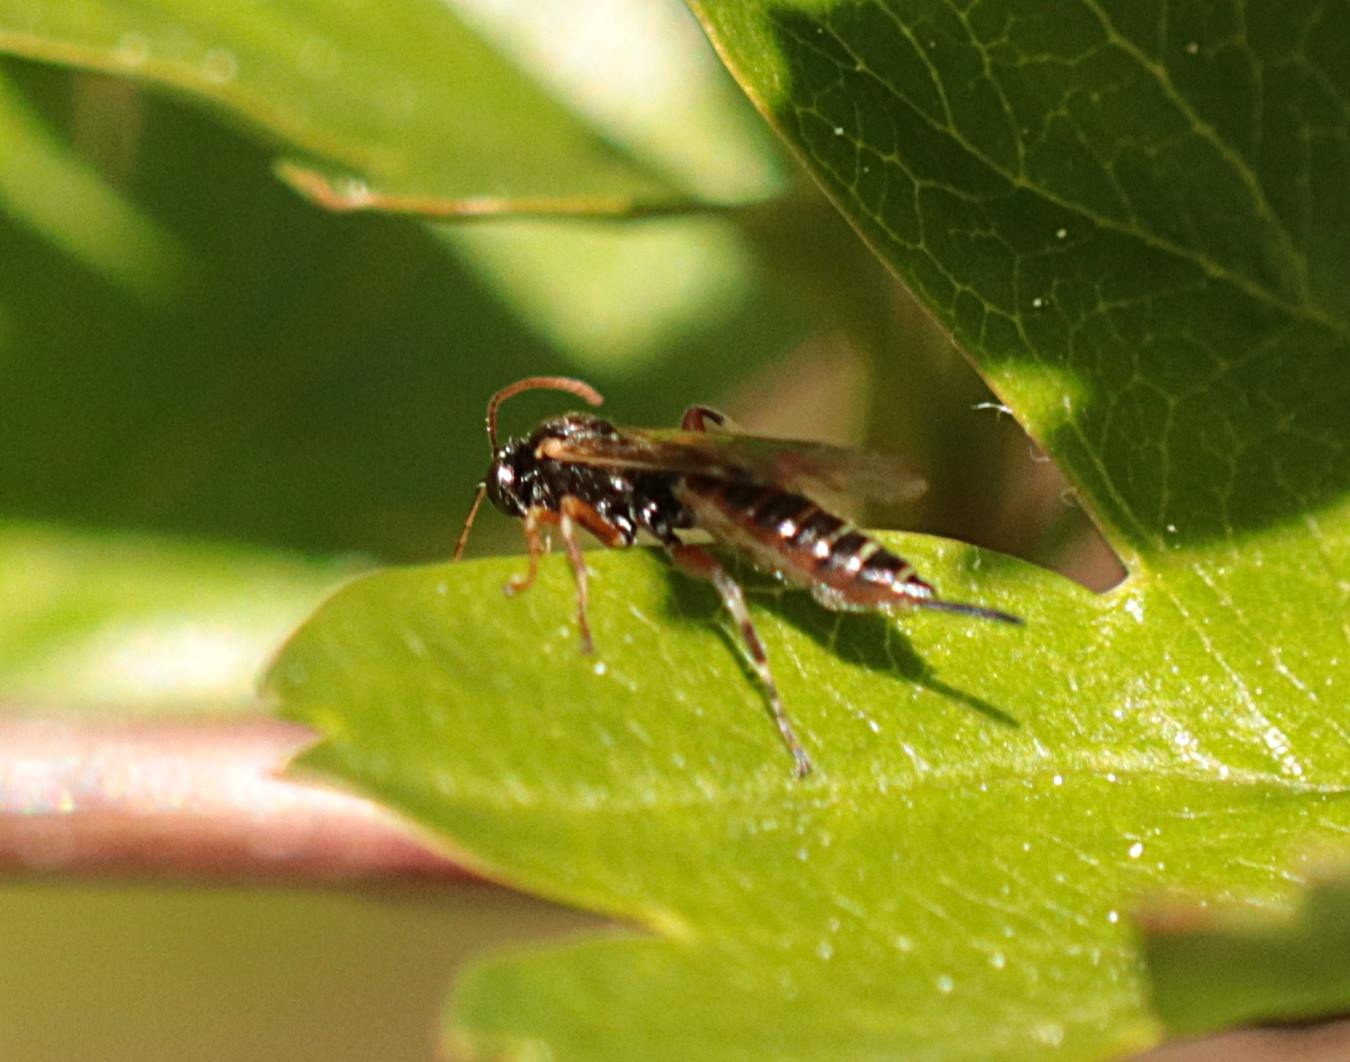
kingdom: Animalia
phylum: Arthropoda
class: Insecta
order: Hymenoptera
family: Ichneumonidae
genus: Itoplectis
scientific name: Itoplectis maculator
